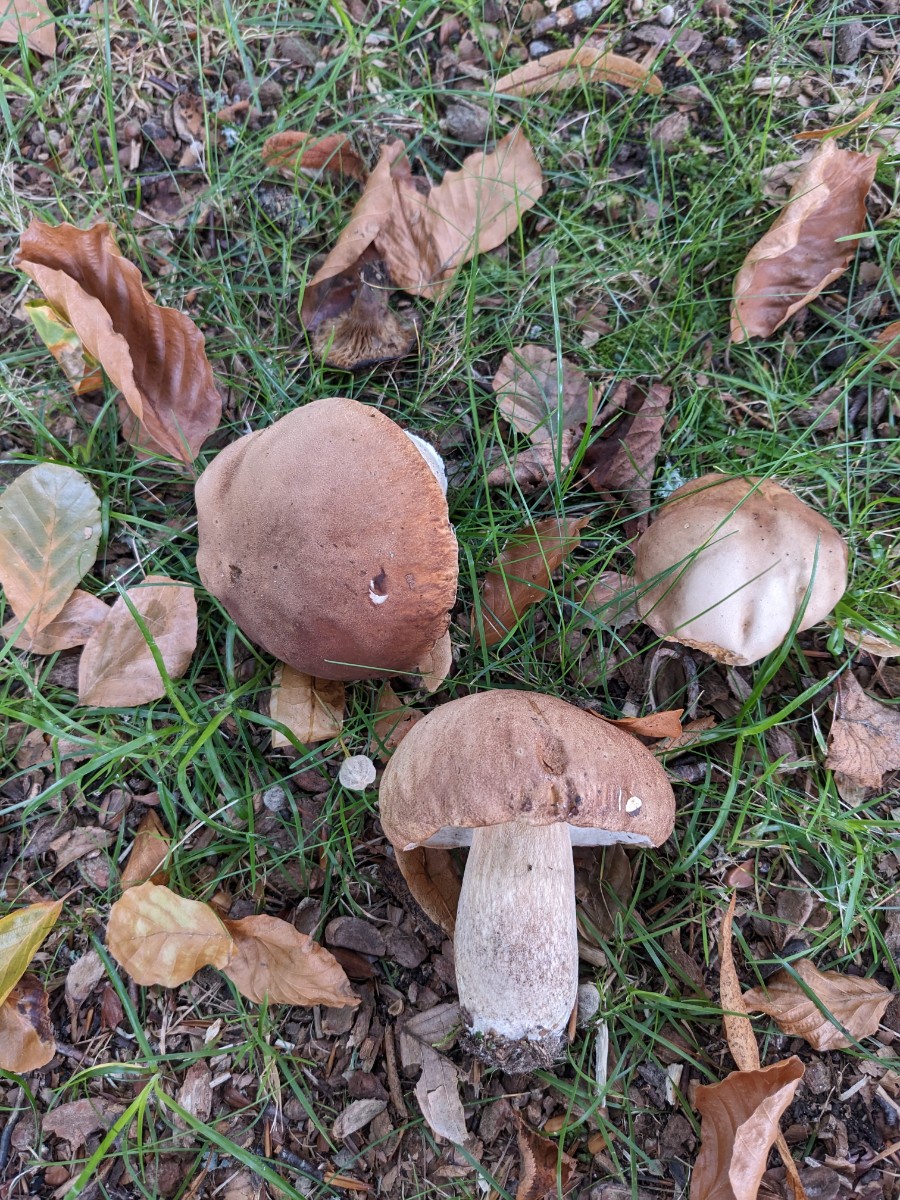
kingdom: Fungi
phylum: Basidiomycota
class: Agaricomycetes
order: Boletales
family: Boletaceae
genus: Boletus
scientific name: Boletus reticulatus
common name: sommer-rørhat
